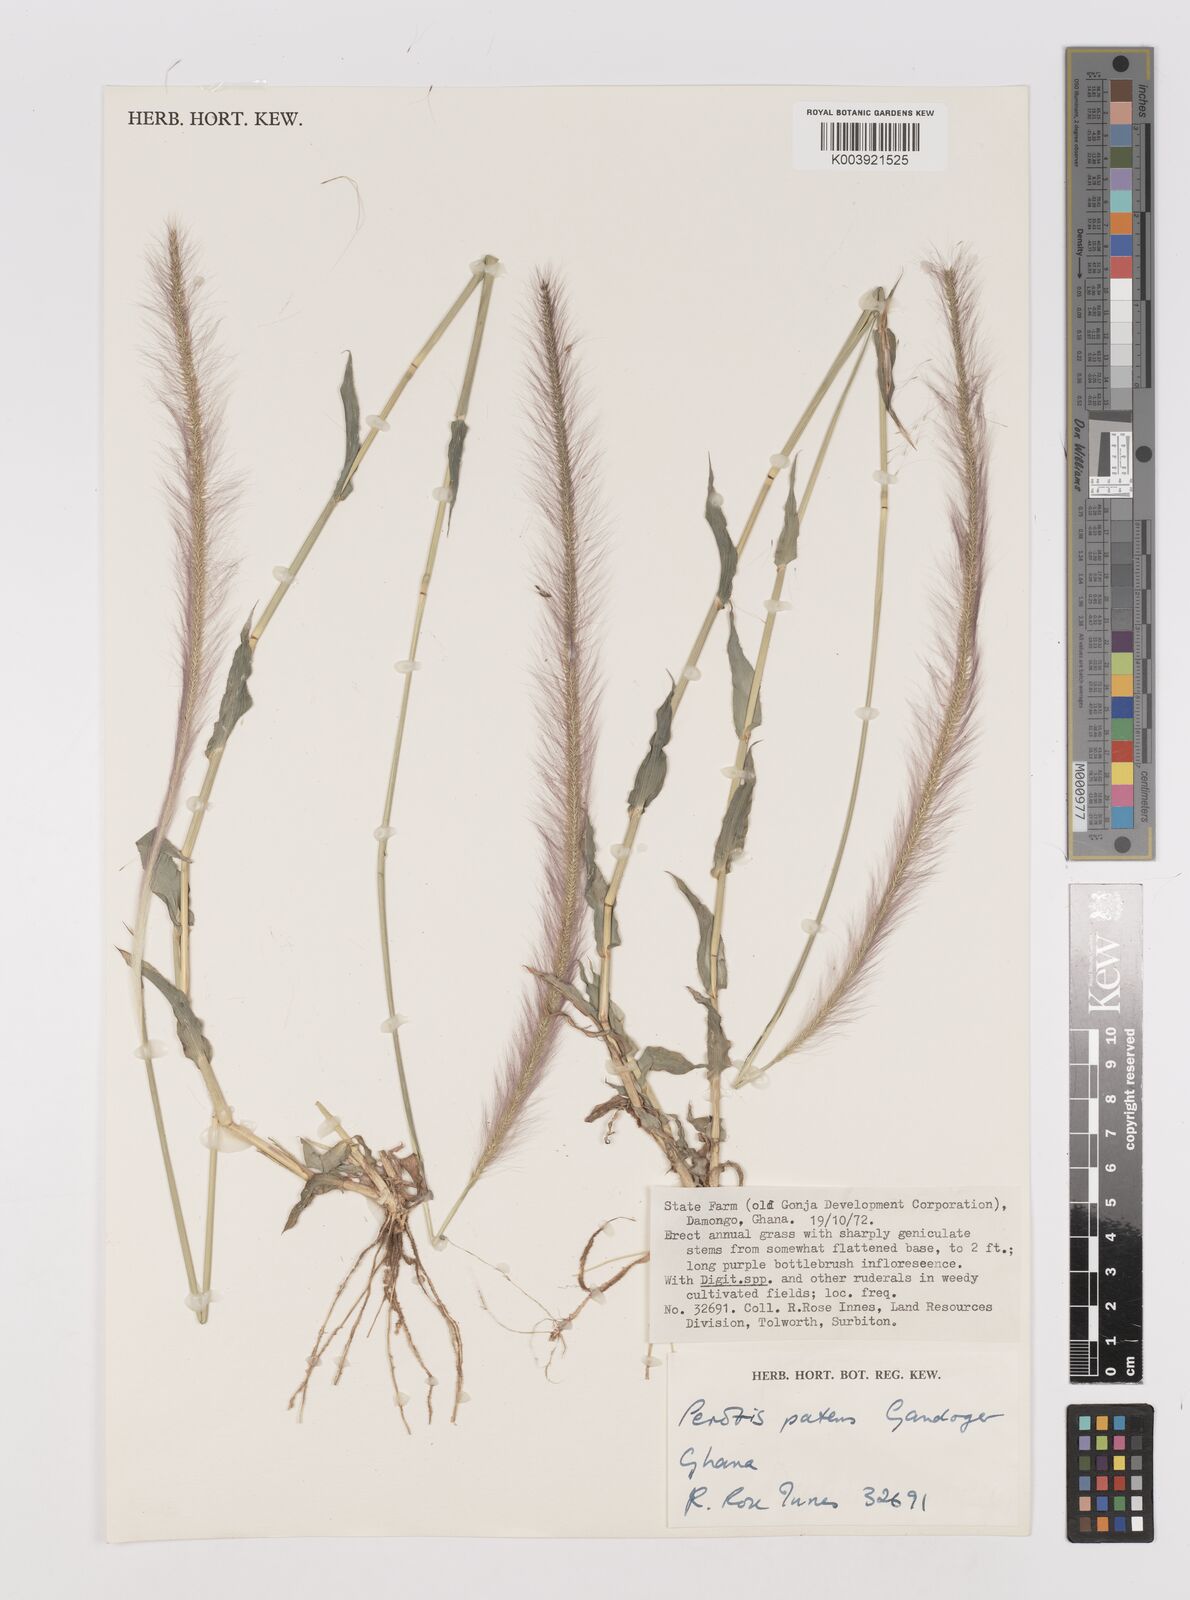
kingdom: Plantae
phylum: Tracheophyta
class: Liliopsida
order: Poales
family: Poaceae
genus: Perotis
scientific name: Perotis patens
